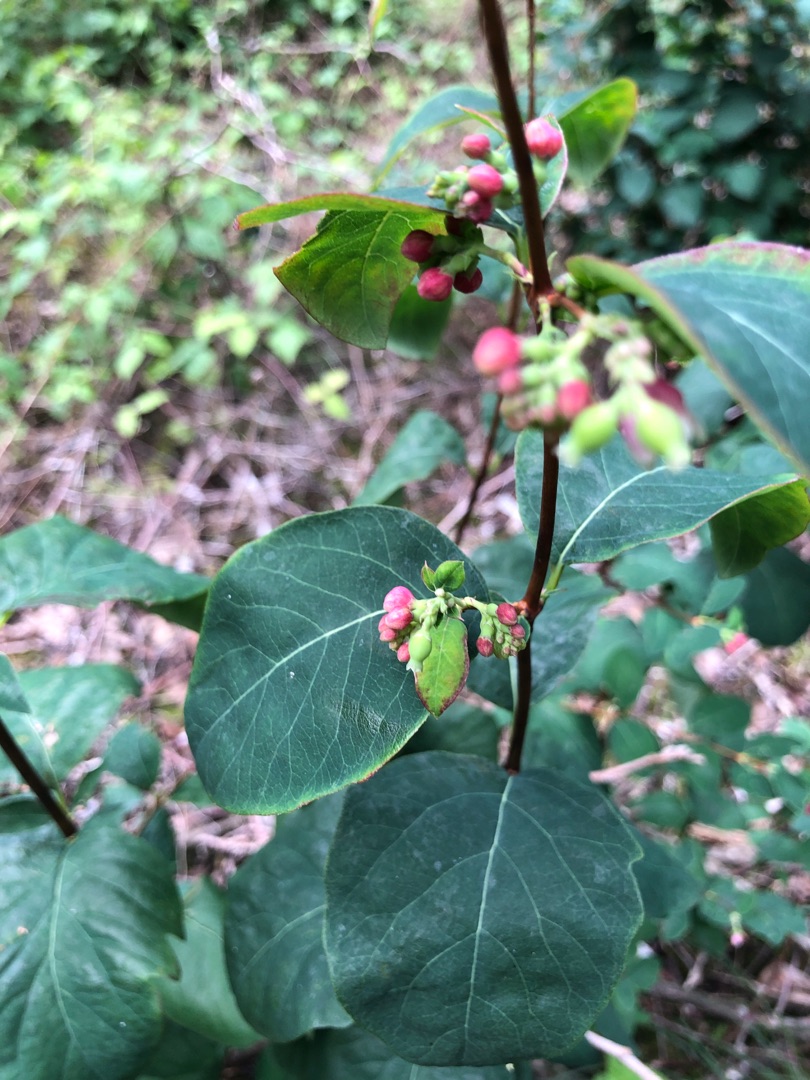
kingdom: Plantae
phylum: Tracheophyta
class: Magnoliopsida
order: Dipsacales
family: Caprifoliaceae
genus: Symphoricarpos
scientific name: Symphoricarpos albus
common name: Almindelig snebær
